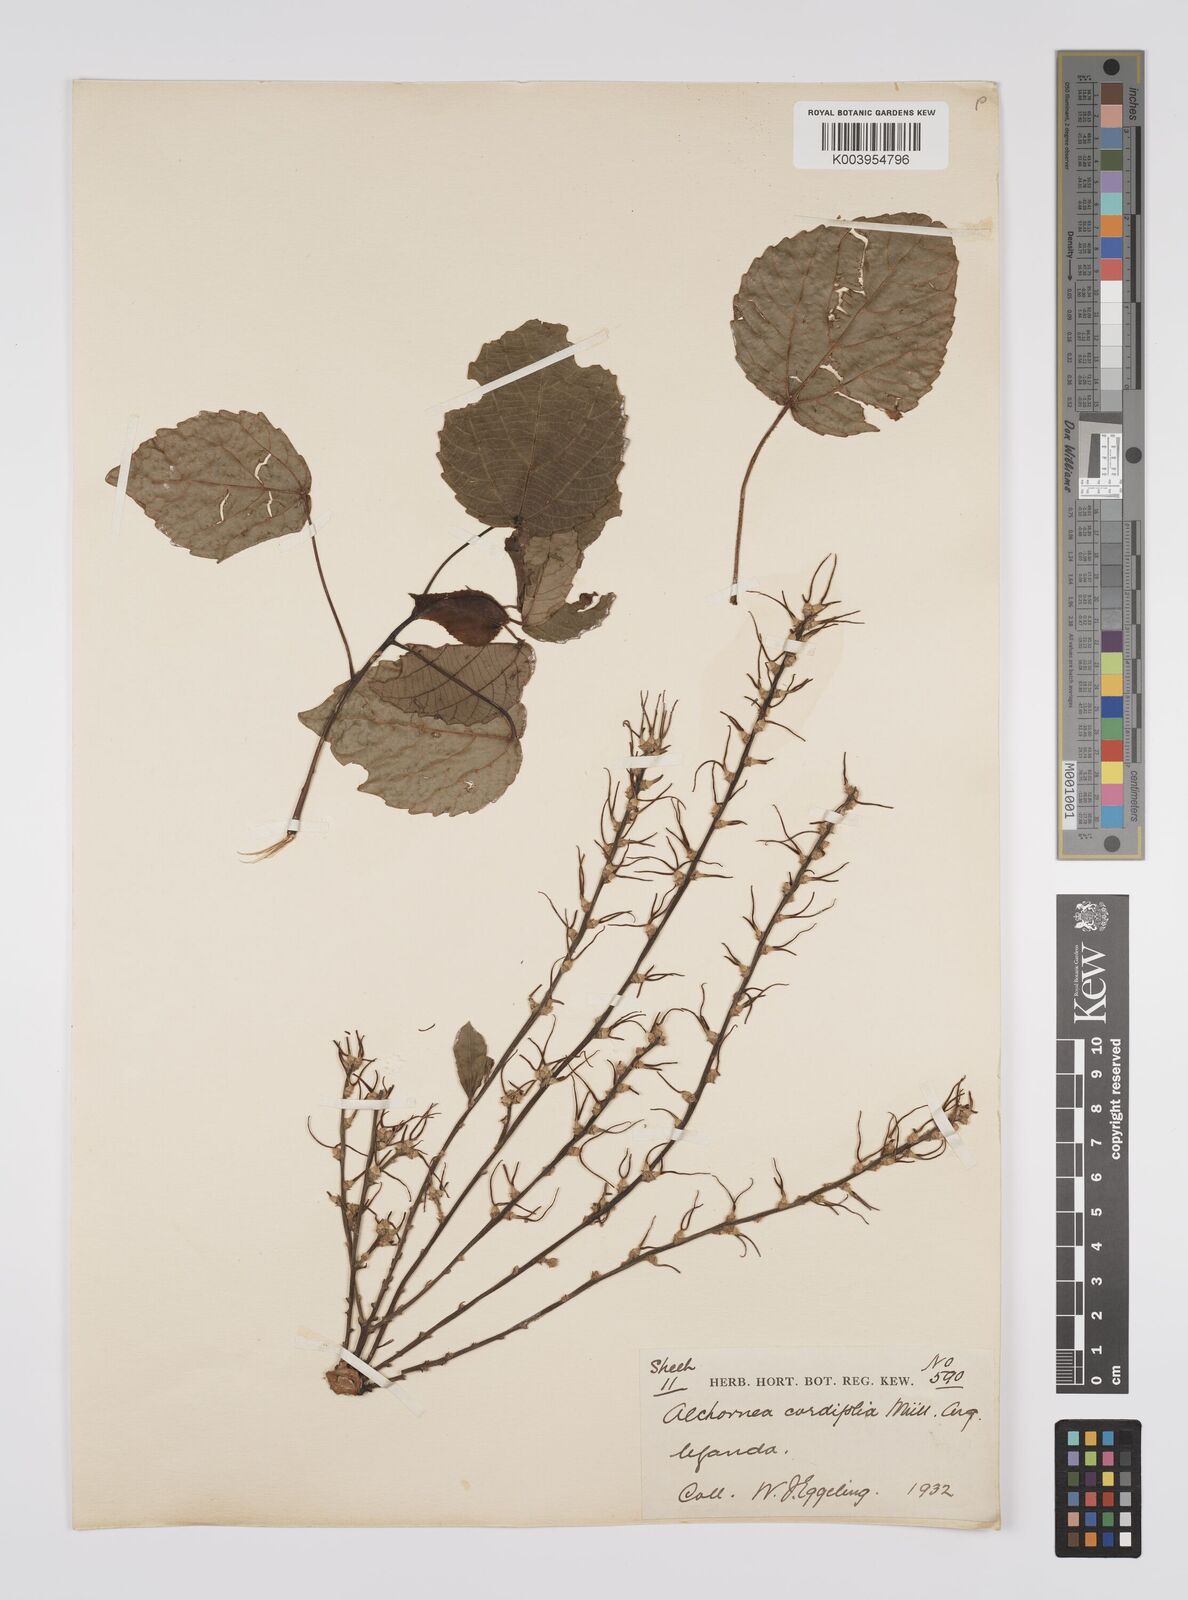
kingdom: Plantae
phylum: Tracheophyta
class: Magnoliopsida
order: Malpighiales
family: Euphorbiaceae
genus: Alchornea
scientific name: Alchornea cordifolia
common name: Christmasbush
